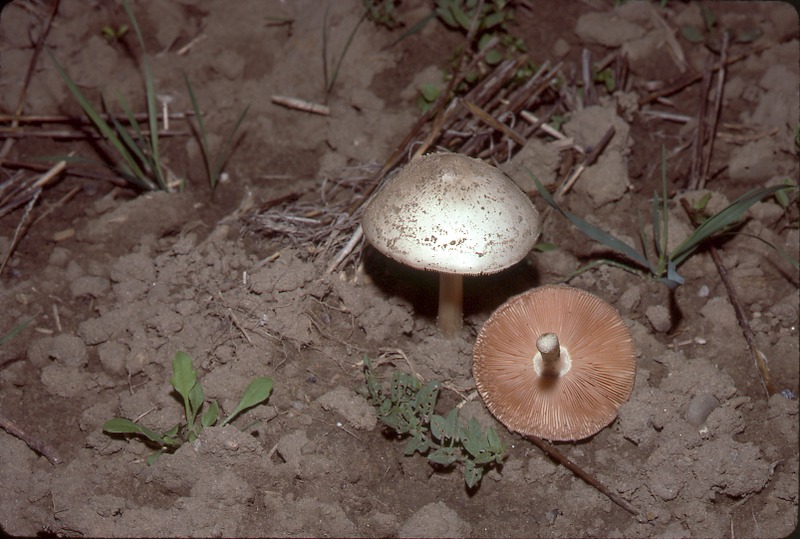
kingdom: Fungi
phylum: Basidiomycota
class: Agaricomycetes
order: Agaricales
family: Pluteaceae
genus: Volvopluteus
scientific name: Volvopluteus gloiocephalus
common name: Stubble rosegill
